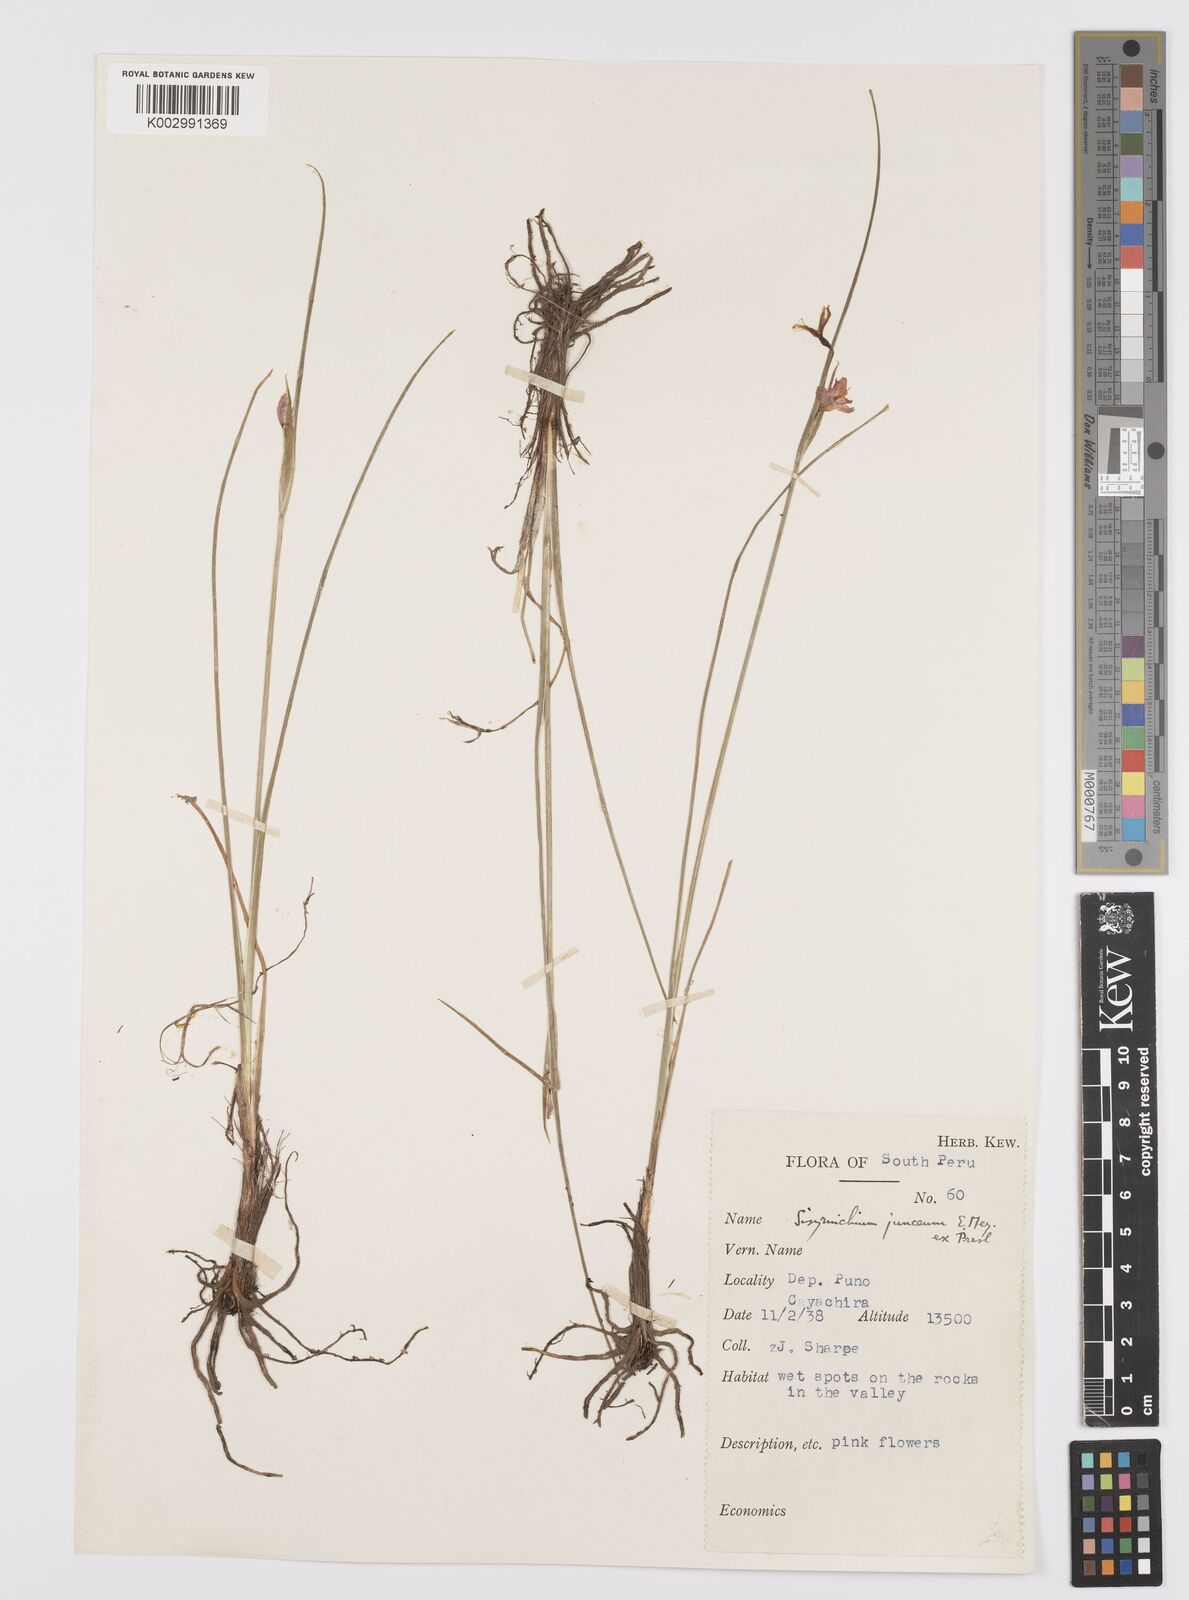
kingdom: Plantae
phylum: Tracheophyta
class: Liliopsida
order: Asparagales
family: Iridaceae
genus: Olsynium
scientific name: Olsynium junceum
